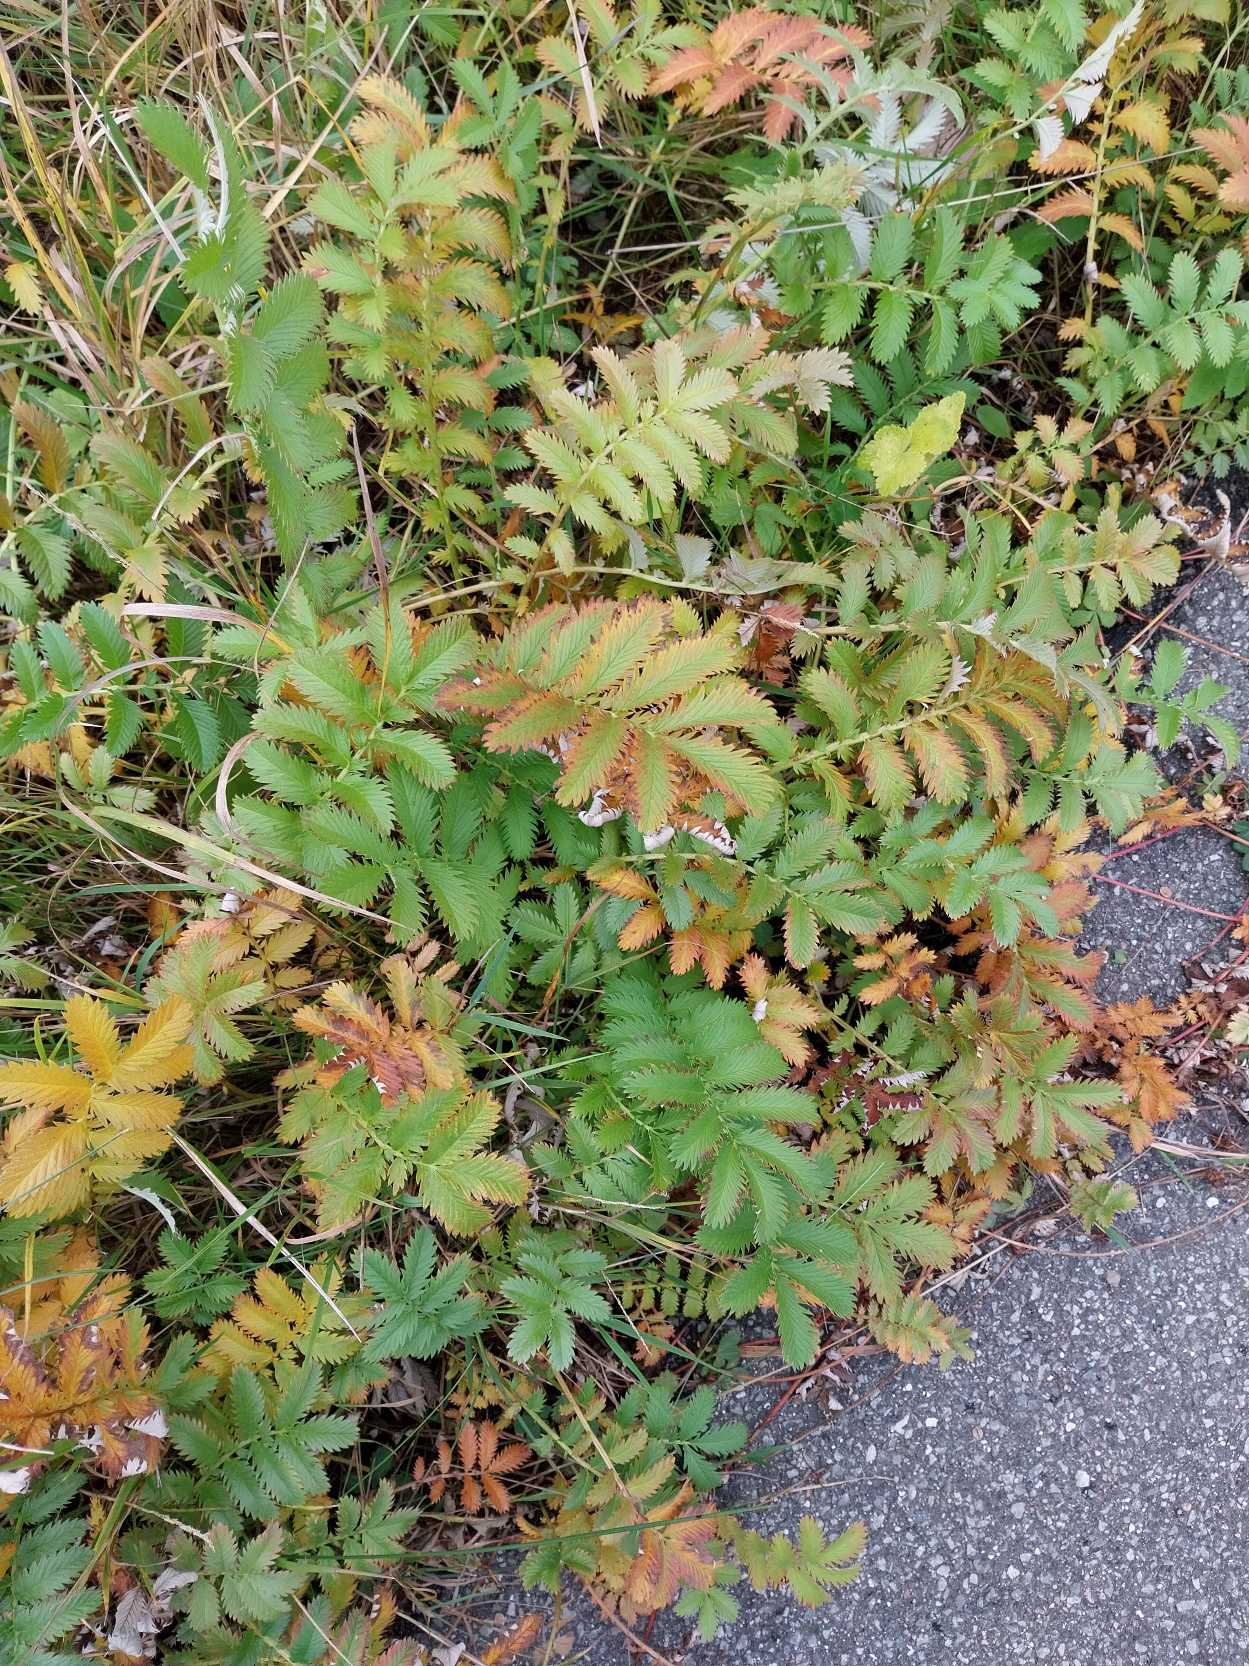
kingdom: Plantae
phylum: Tracheophyta
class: Magnoliopsida
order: Rosales
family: Rosaceae
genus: Argentina
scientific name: Argentina anserina
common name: Gåsepotentil
